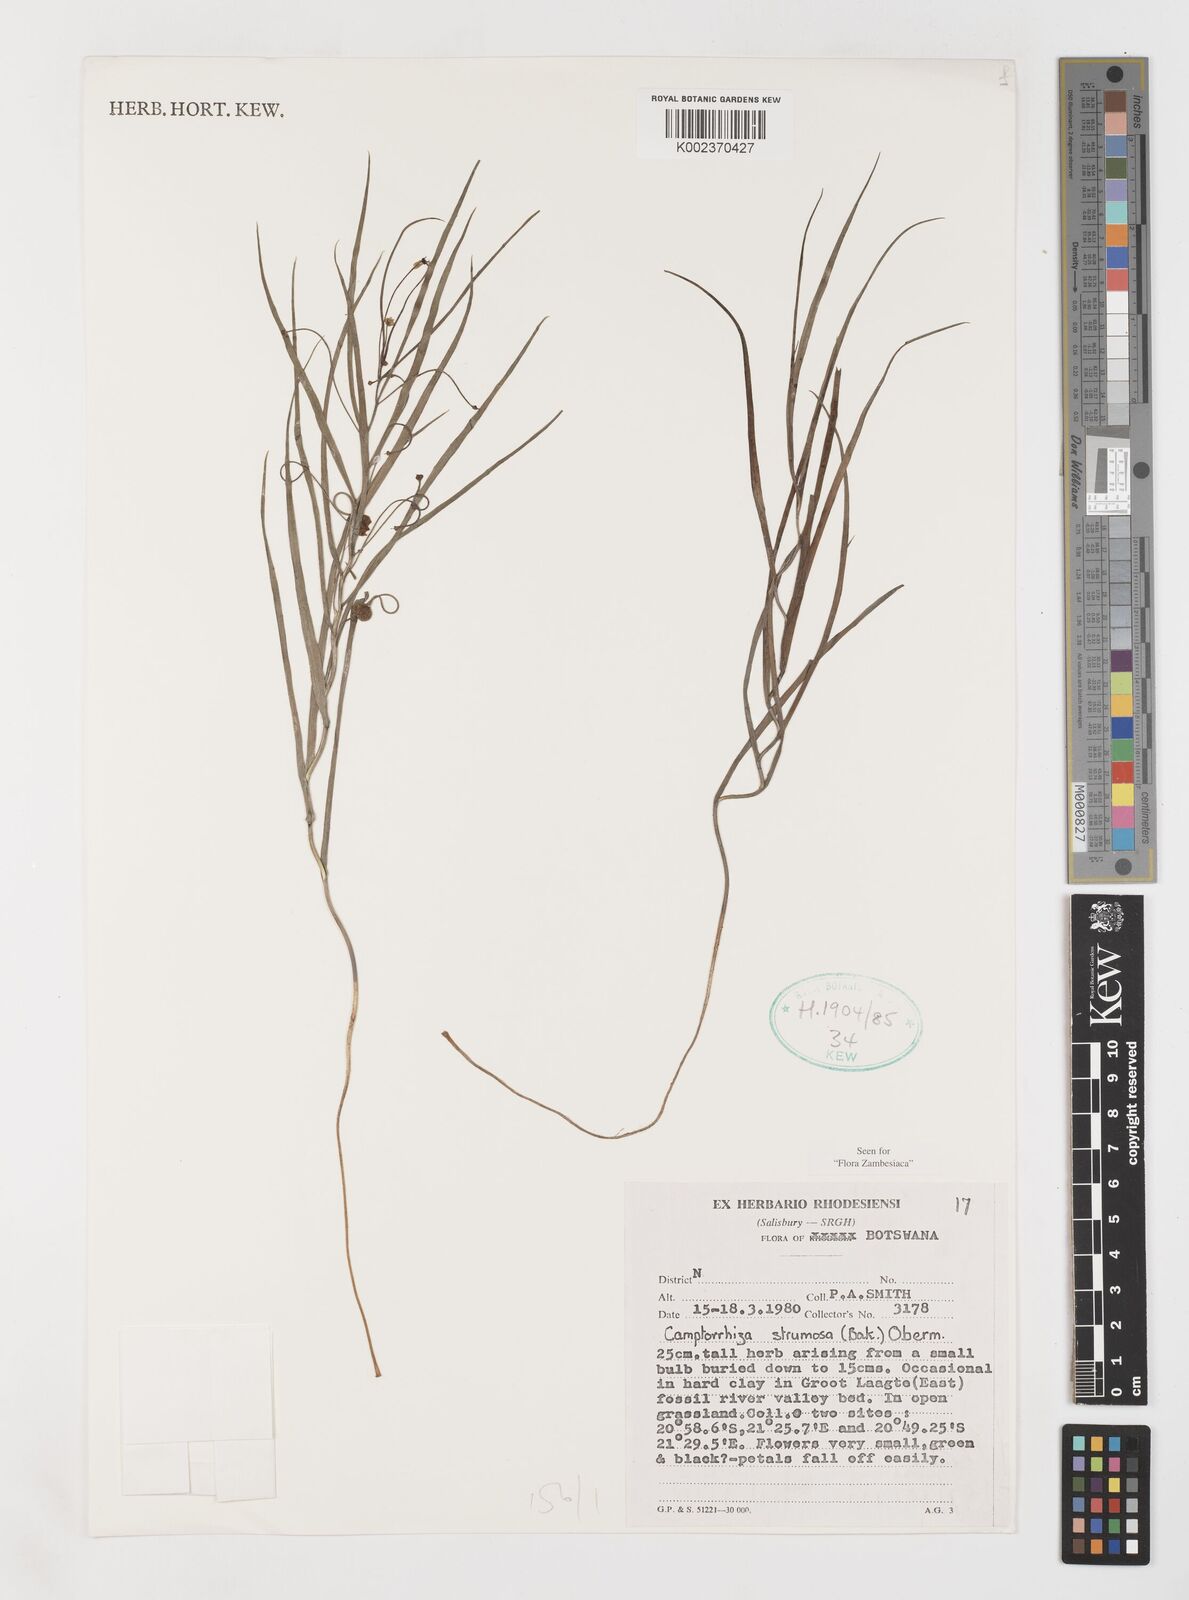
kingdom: Plantae
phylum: Tracheophyta
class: Liliopsida
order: Liliales
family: Colchicaceae
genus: Camptorrhiza
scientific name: Camptorrhiza strumosa
